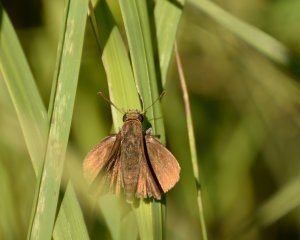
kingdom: Animalia
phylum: Arthropoda
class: Insecta
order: Lepidoptera
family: Hesperiidae
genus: Euphyes
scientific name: Euphyes vestris
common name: Dun Skipper
